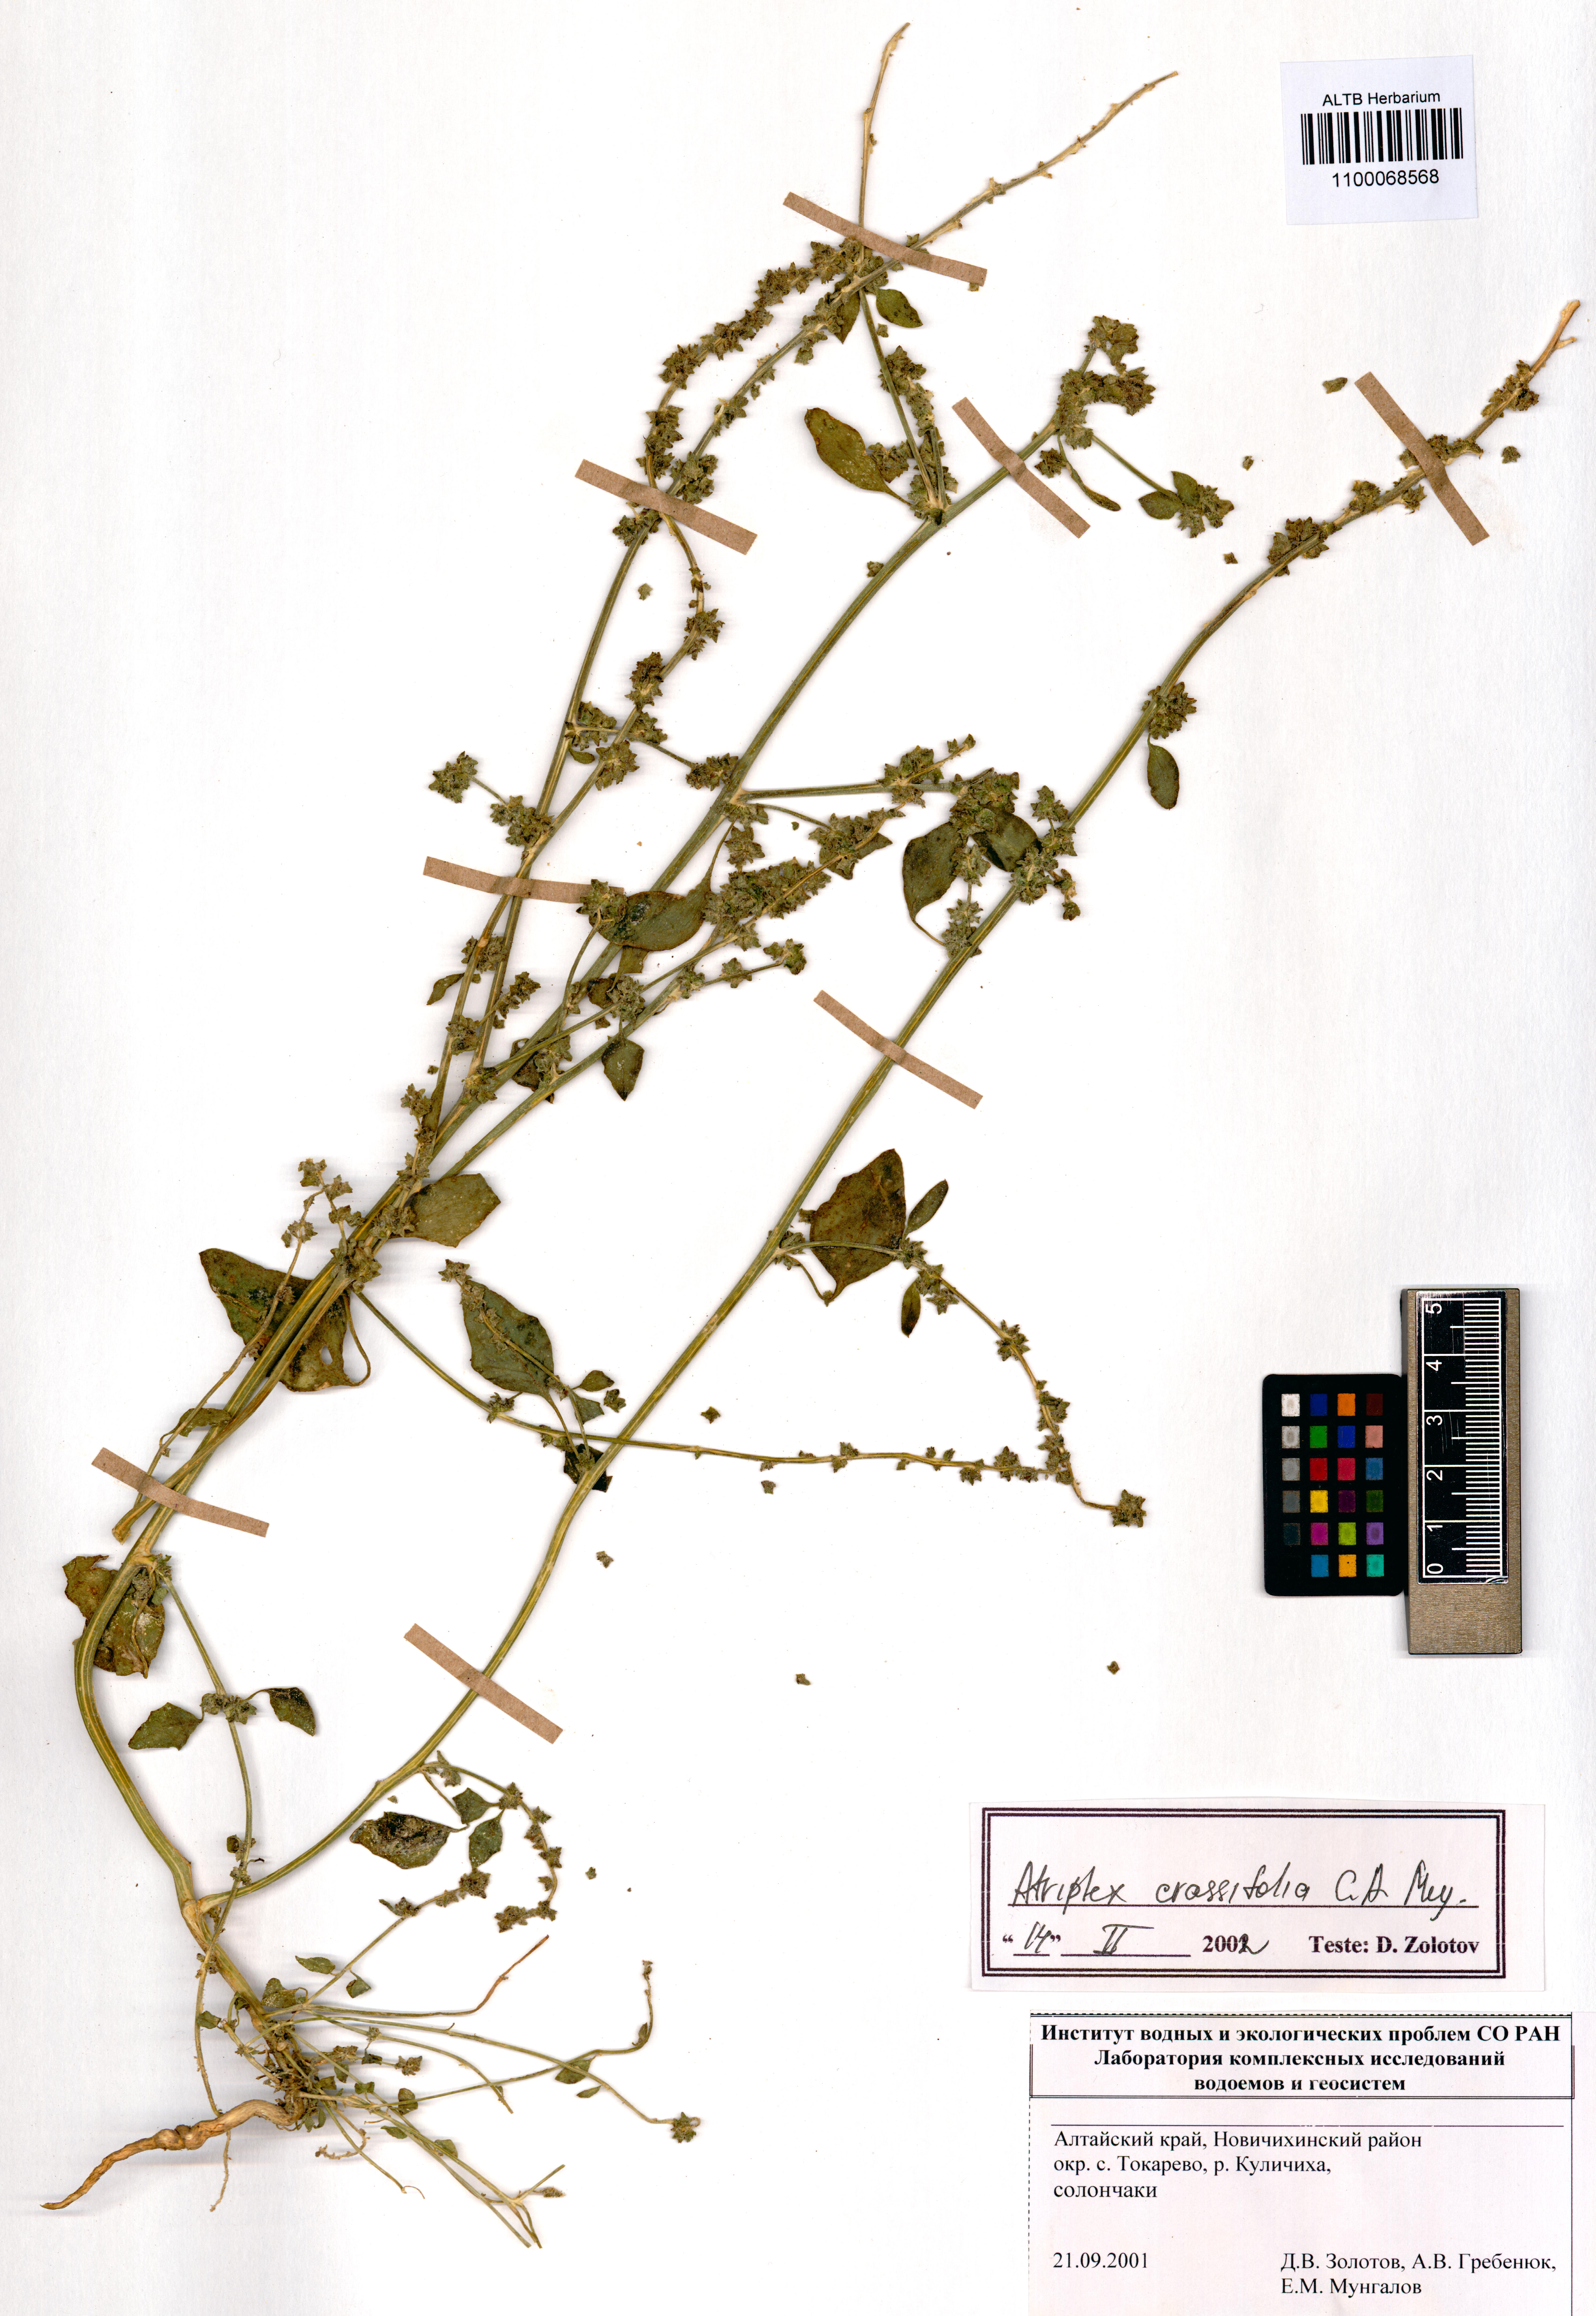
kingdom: Plantae
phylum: Tracheophyta
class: Magnoliopsida
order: Caryophyllales
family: Amaranthaceae
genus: Atriplex
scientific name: Atriplex crassifolia
